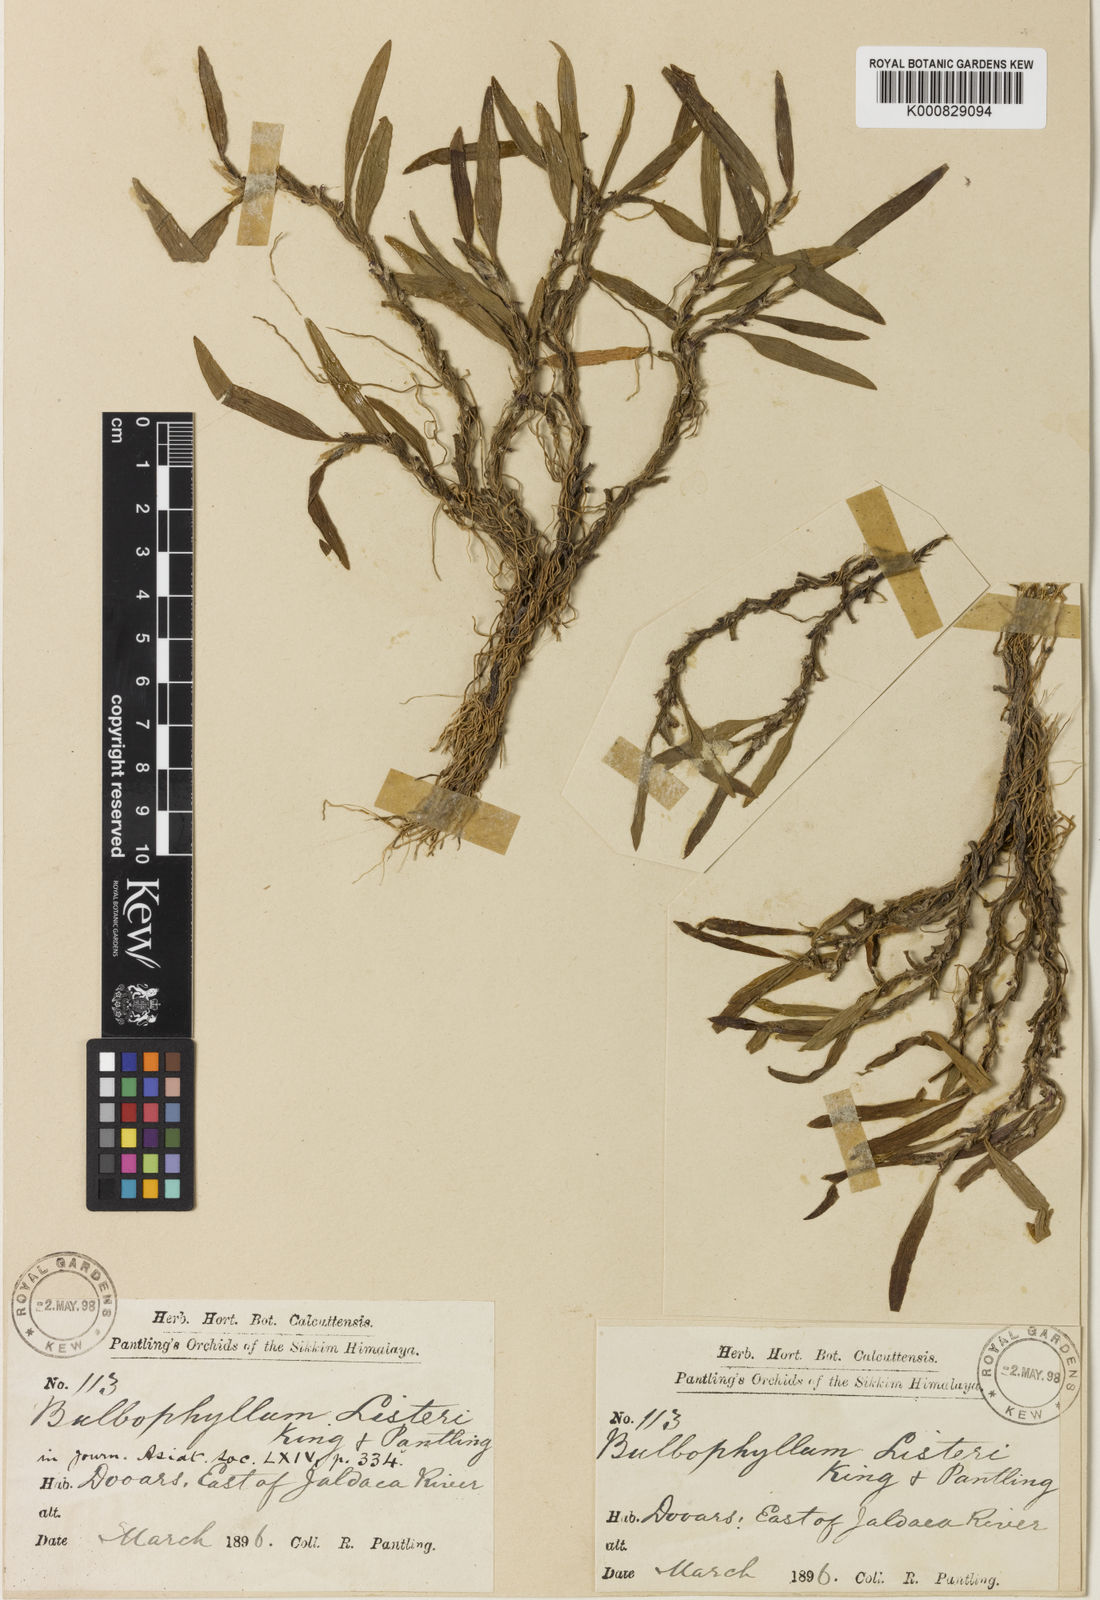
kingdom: Plantae
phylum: Tracheophyta
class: Liliopsida
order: Asparagales
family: Orchidaceae
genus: Bulbophyllum
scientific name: Bulbophyllum tortuosum
